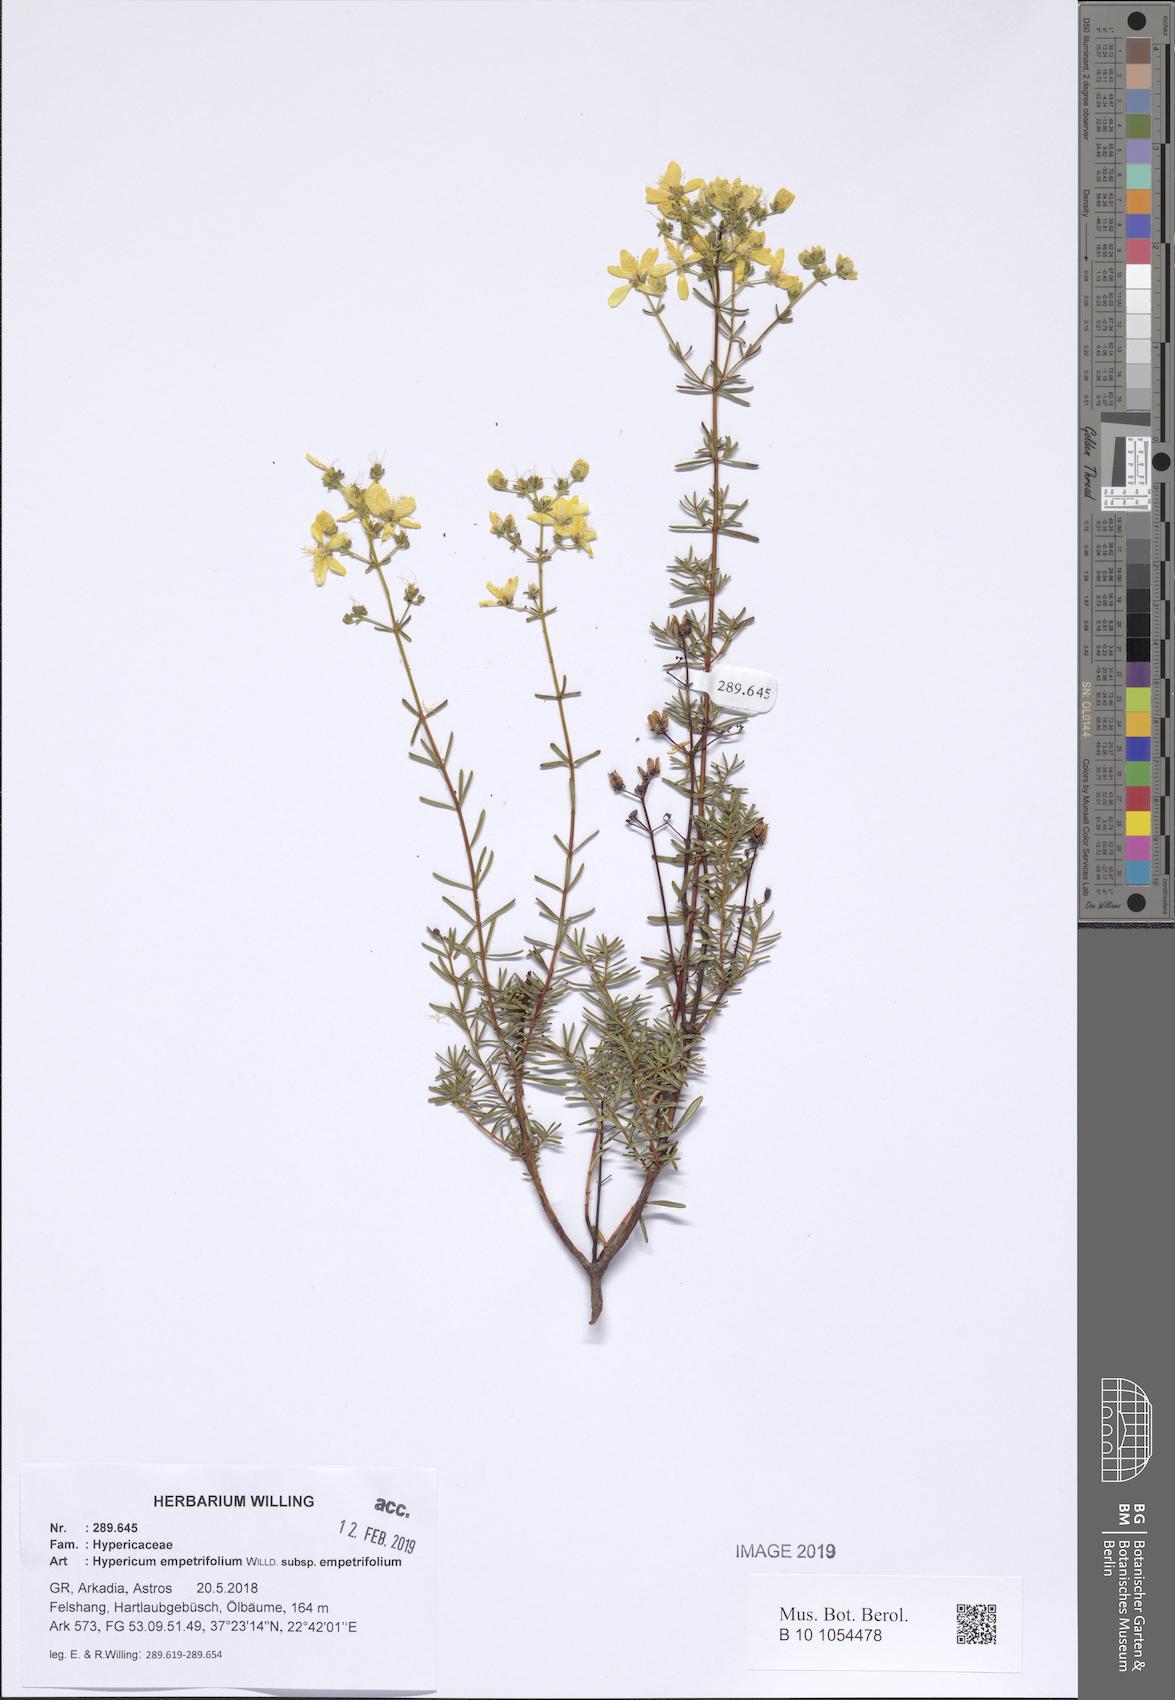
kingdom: Plantae
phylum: Tracheophyta
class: Magnoliopsida
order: Malpighiales
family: Hypericaceae
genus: Hypericum
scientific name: Hypericum empetrifolium
